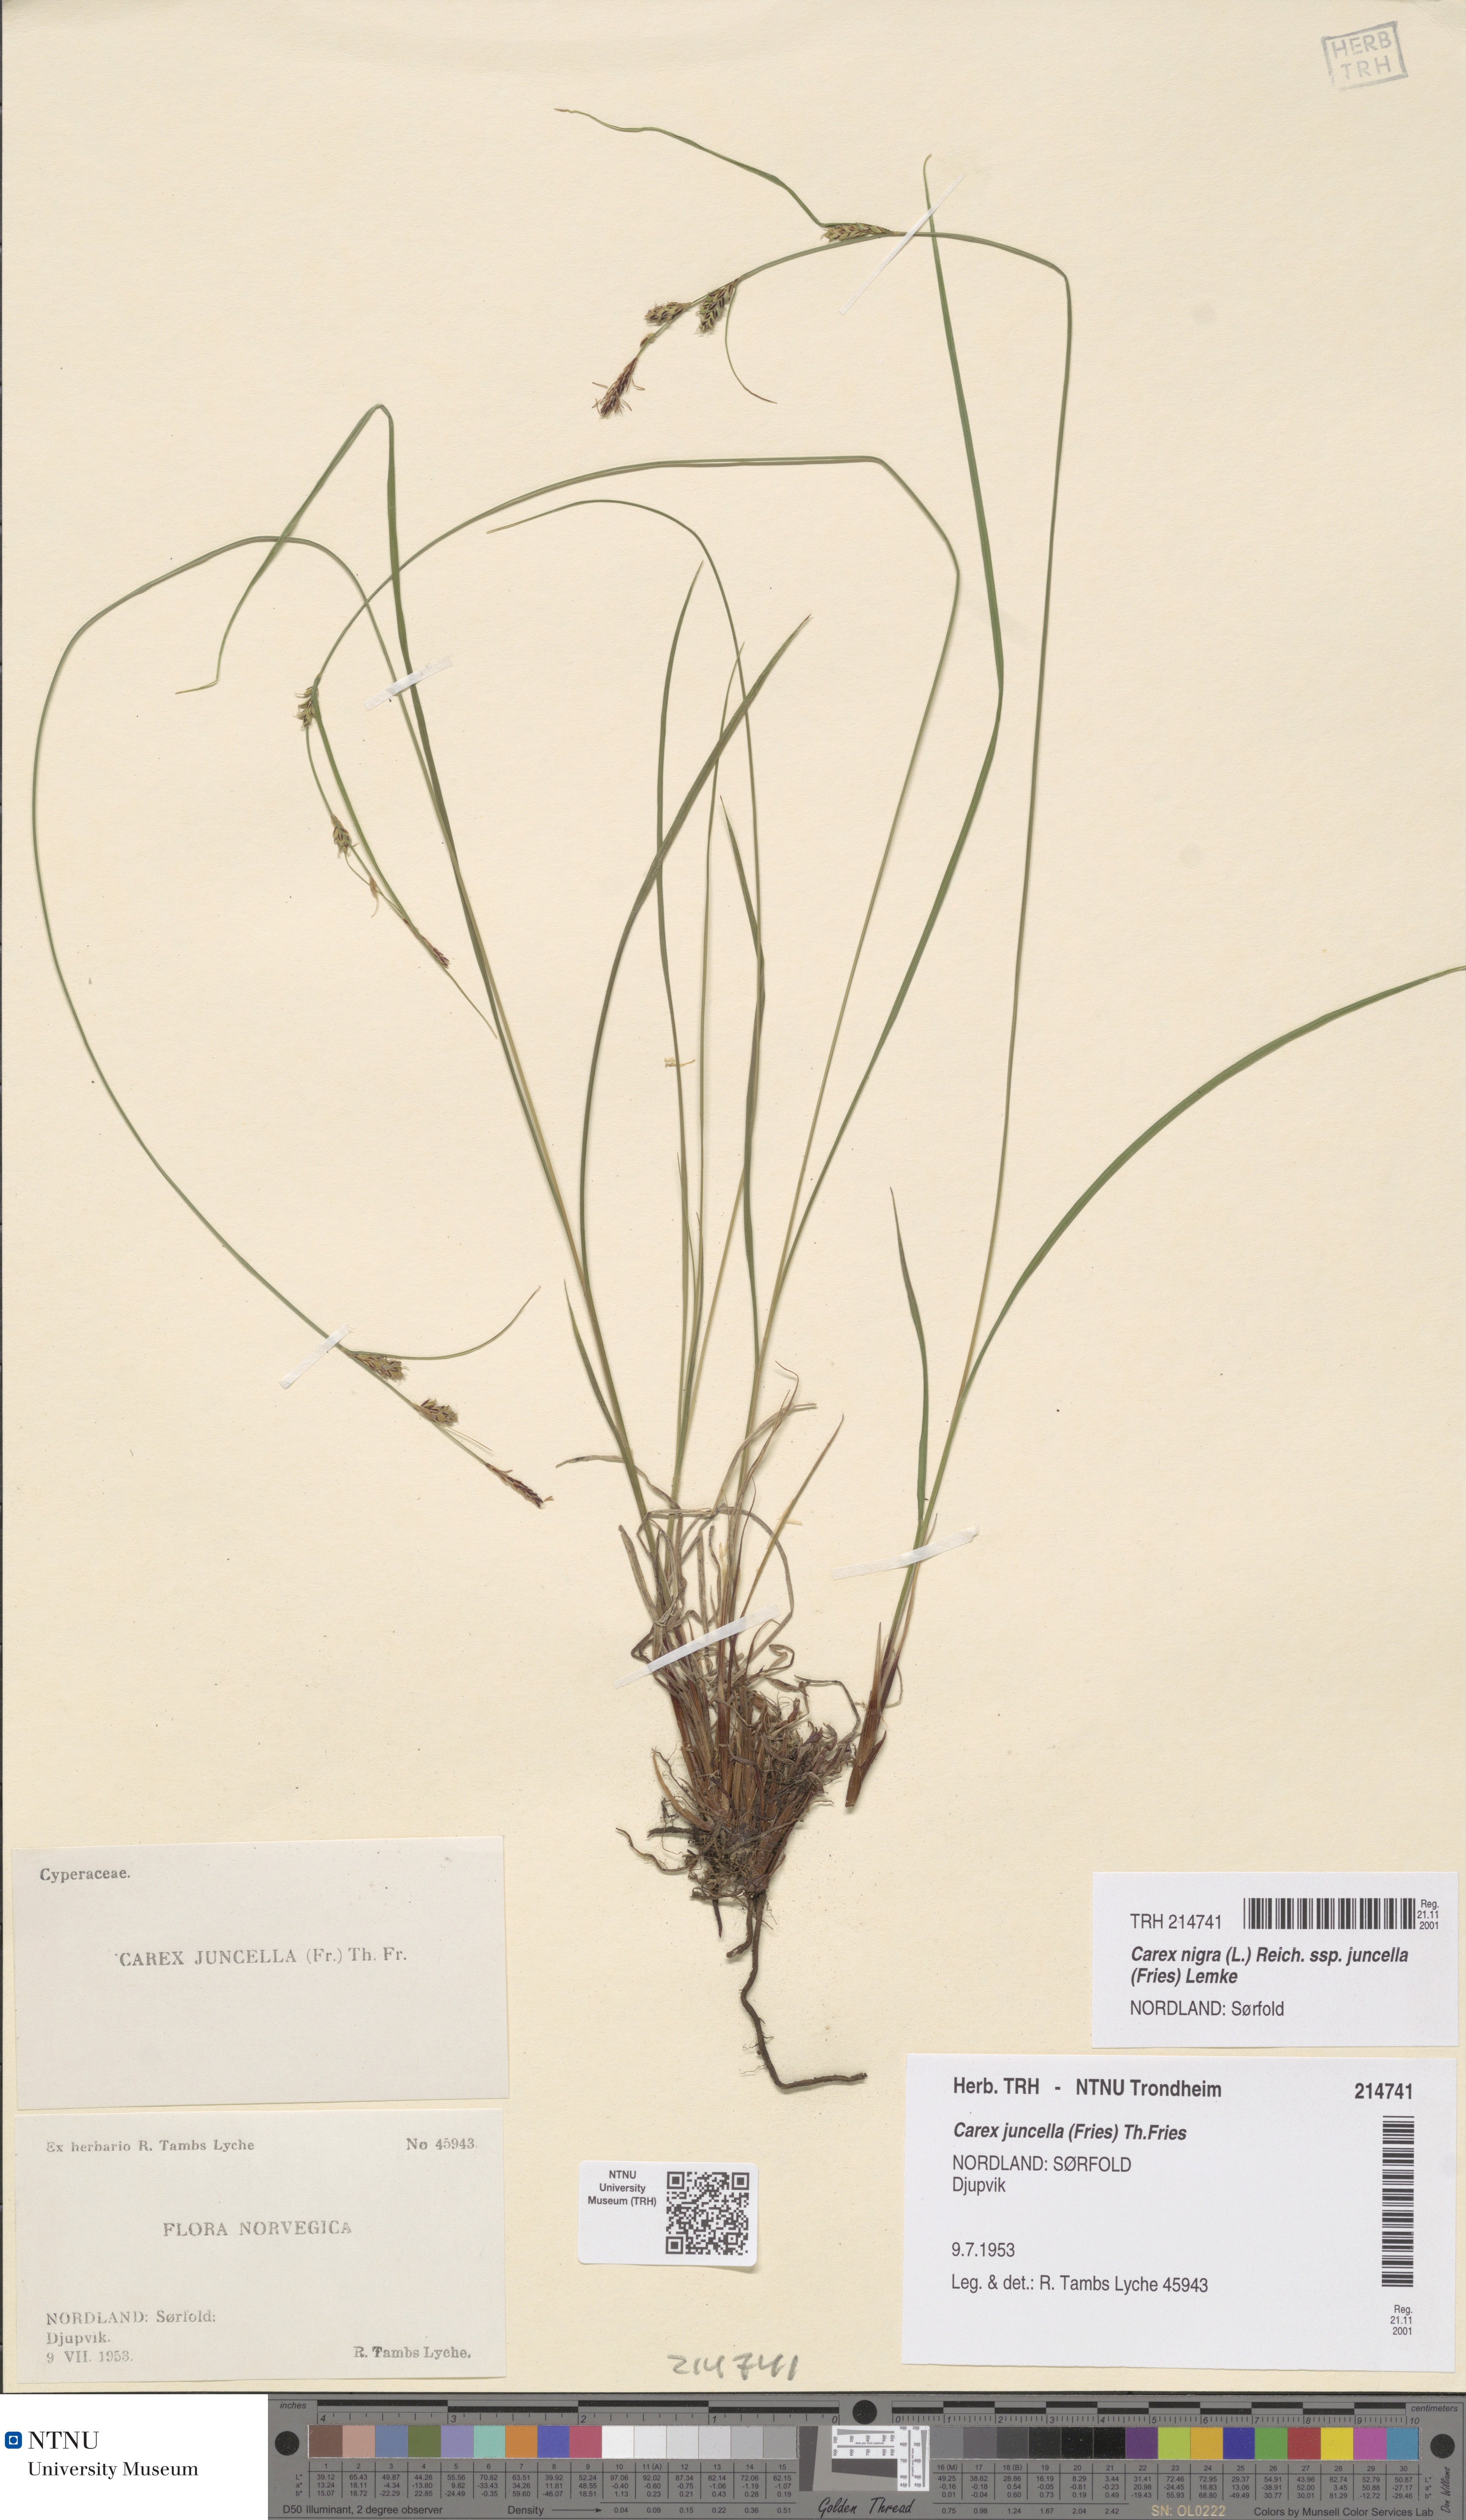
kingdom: Plantae
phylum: Tracheophyta
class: Liliopsida
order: Poales
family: Cyperaceae
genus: Carex
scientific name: Carex nigra
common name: Common sedge
